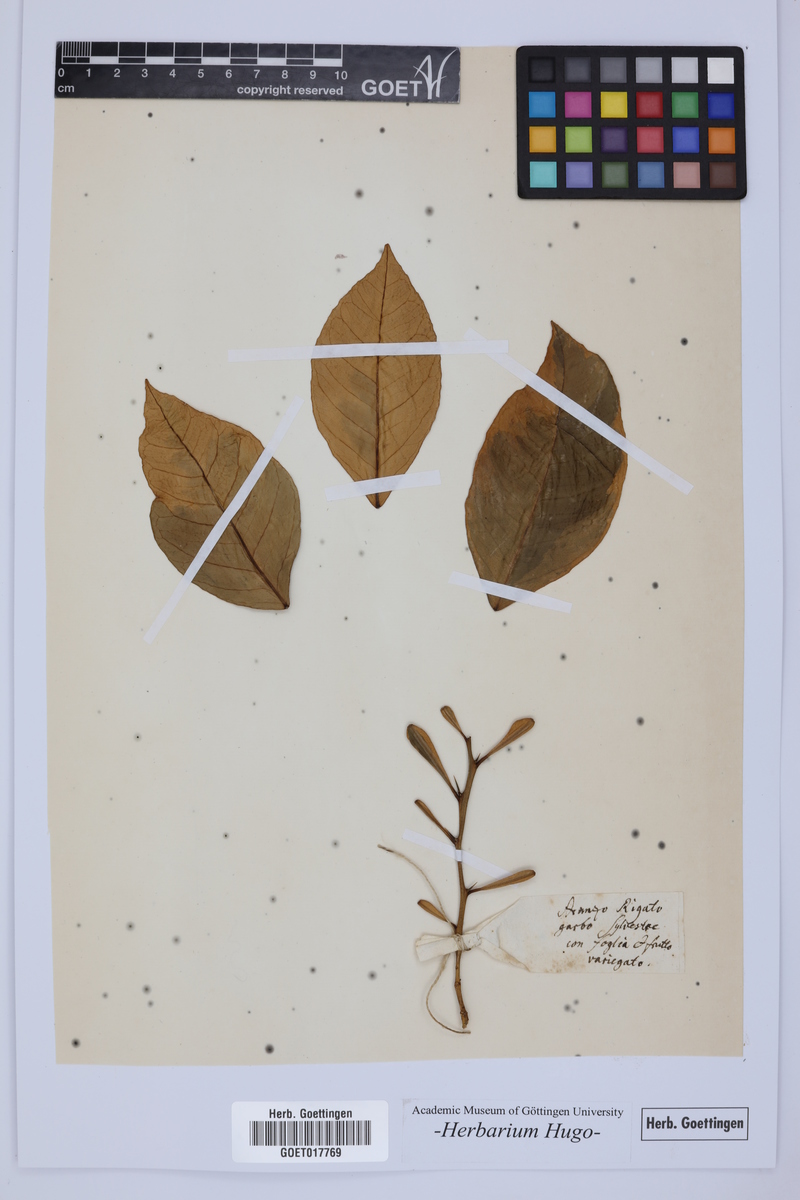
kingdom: Plantae
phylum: Tracheophyta
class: Magnoliopsida
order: Sapindales
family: Rutaceae
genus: Citrus
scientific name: Citrus
